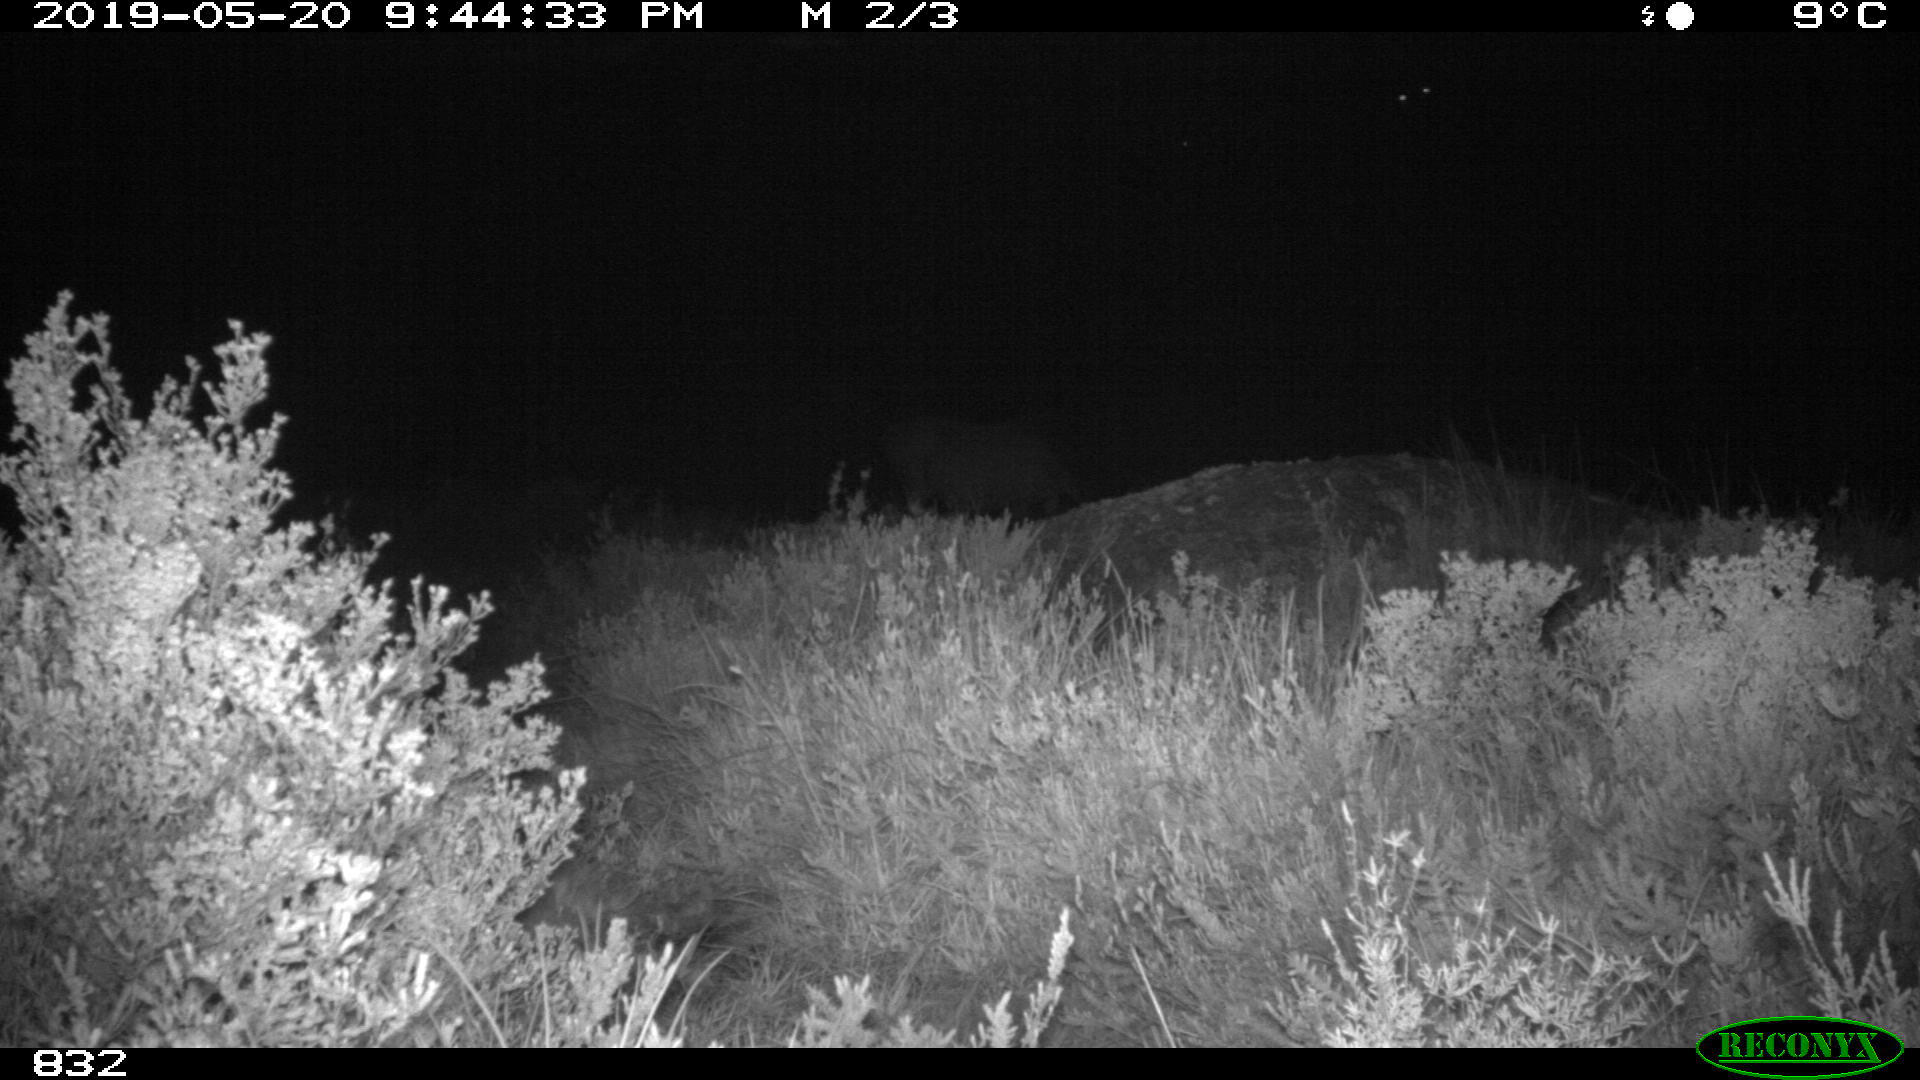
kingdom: Animalia
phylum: Chordata
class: Mammalia
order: Perissodactyla
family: Equidae
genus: Equus
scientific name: Equus caballus
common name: Horse
